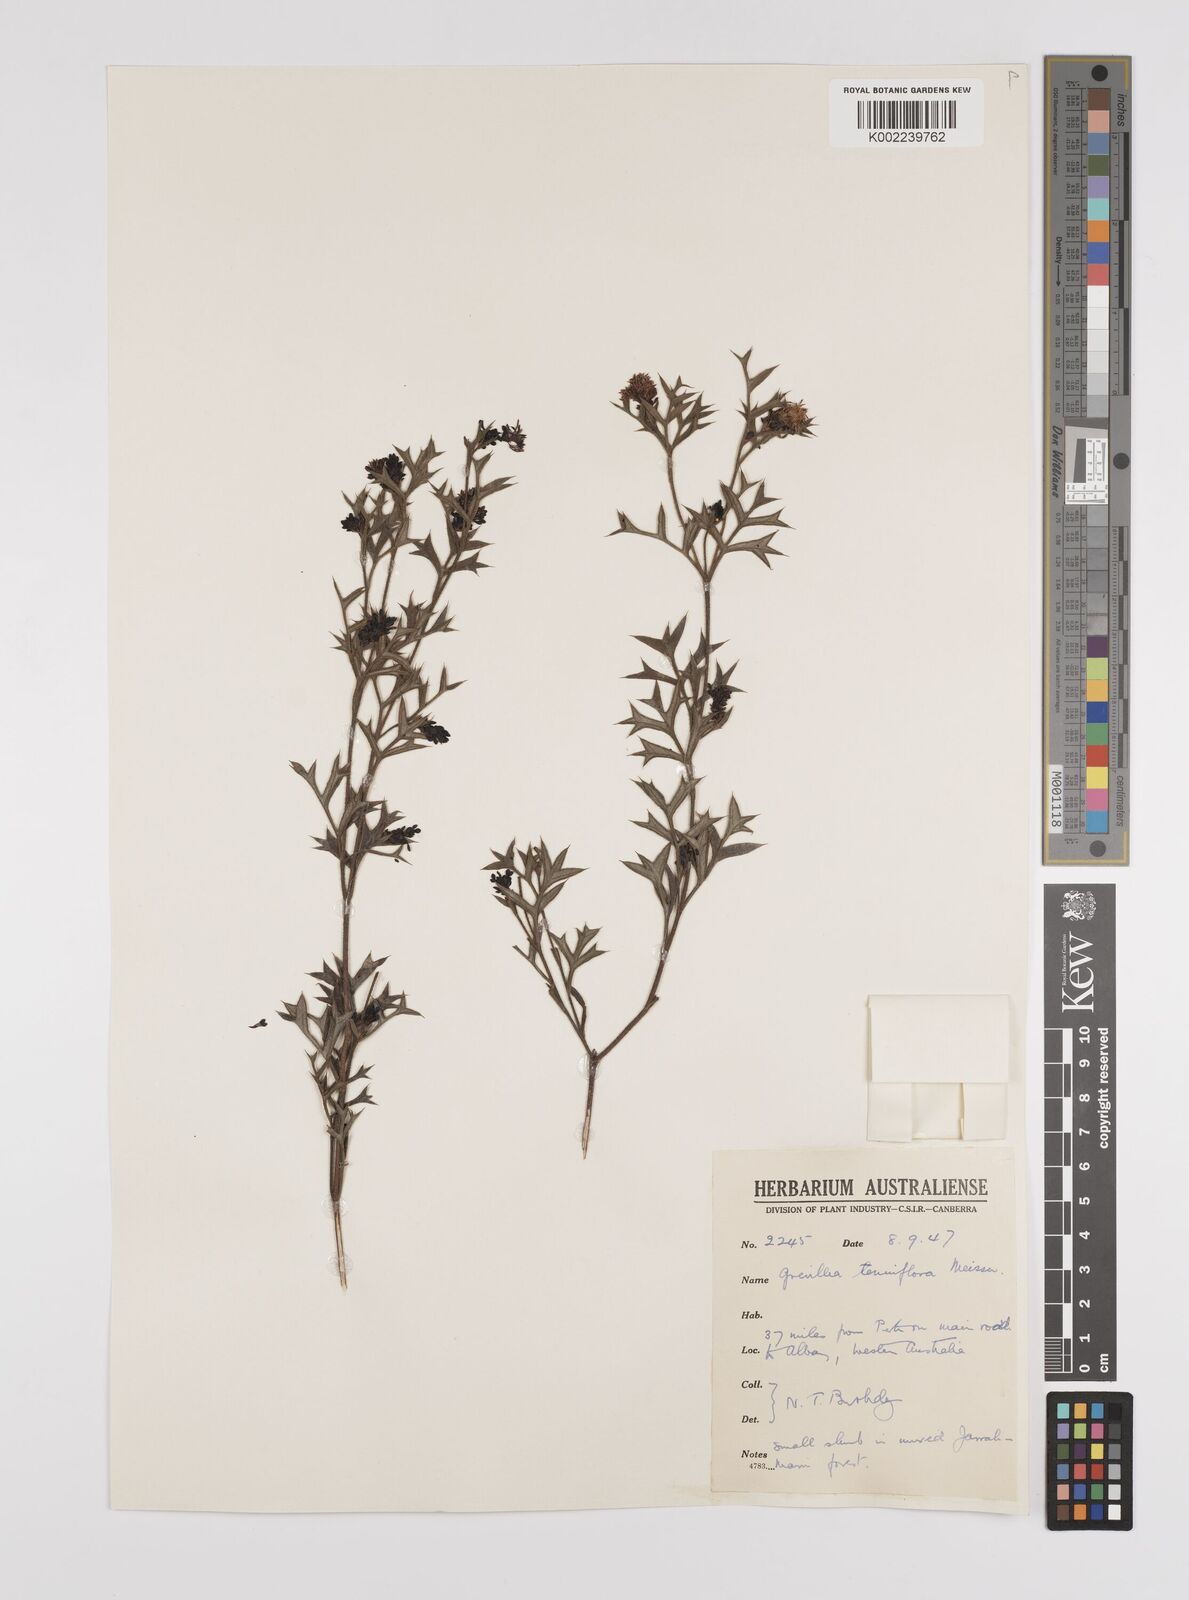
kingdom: Plantae
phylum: Tracheophyta
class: Magnoliopsida
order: Proteales
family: Proteaceae
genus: Grevillea
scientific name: Grevillea tenuiflora
